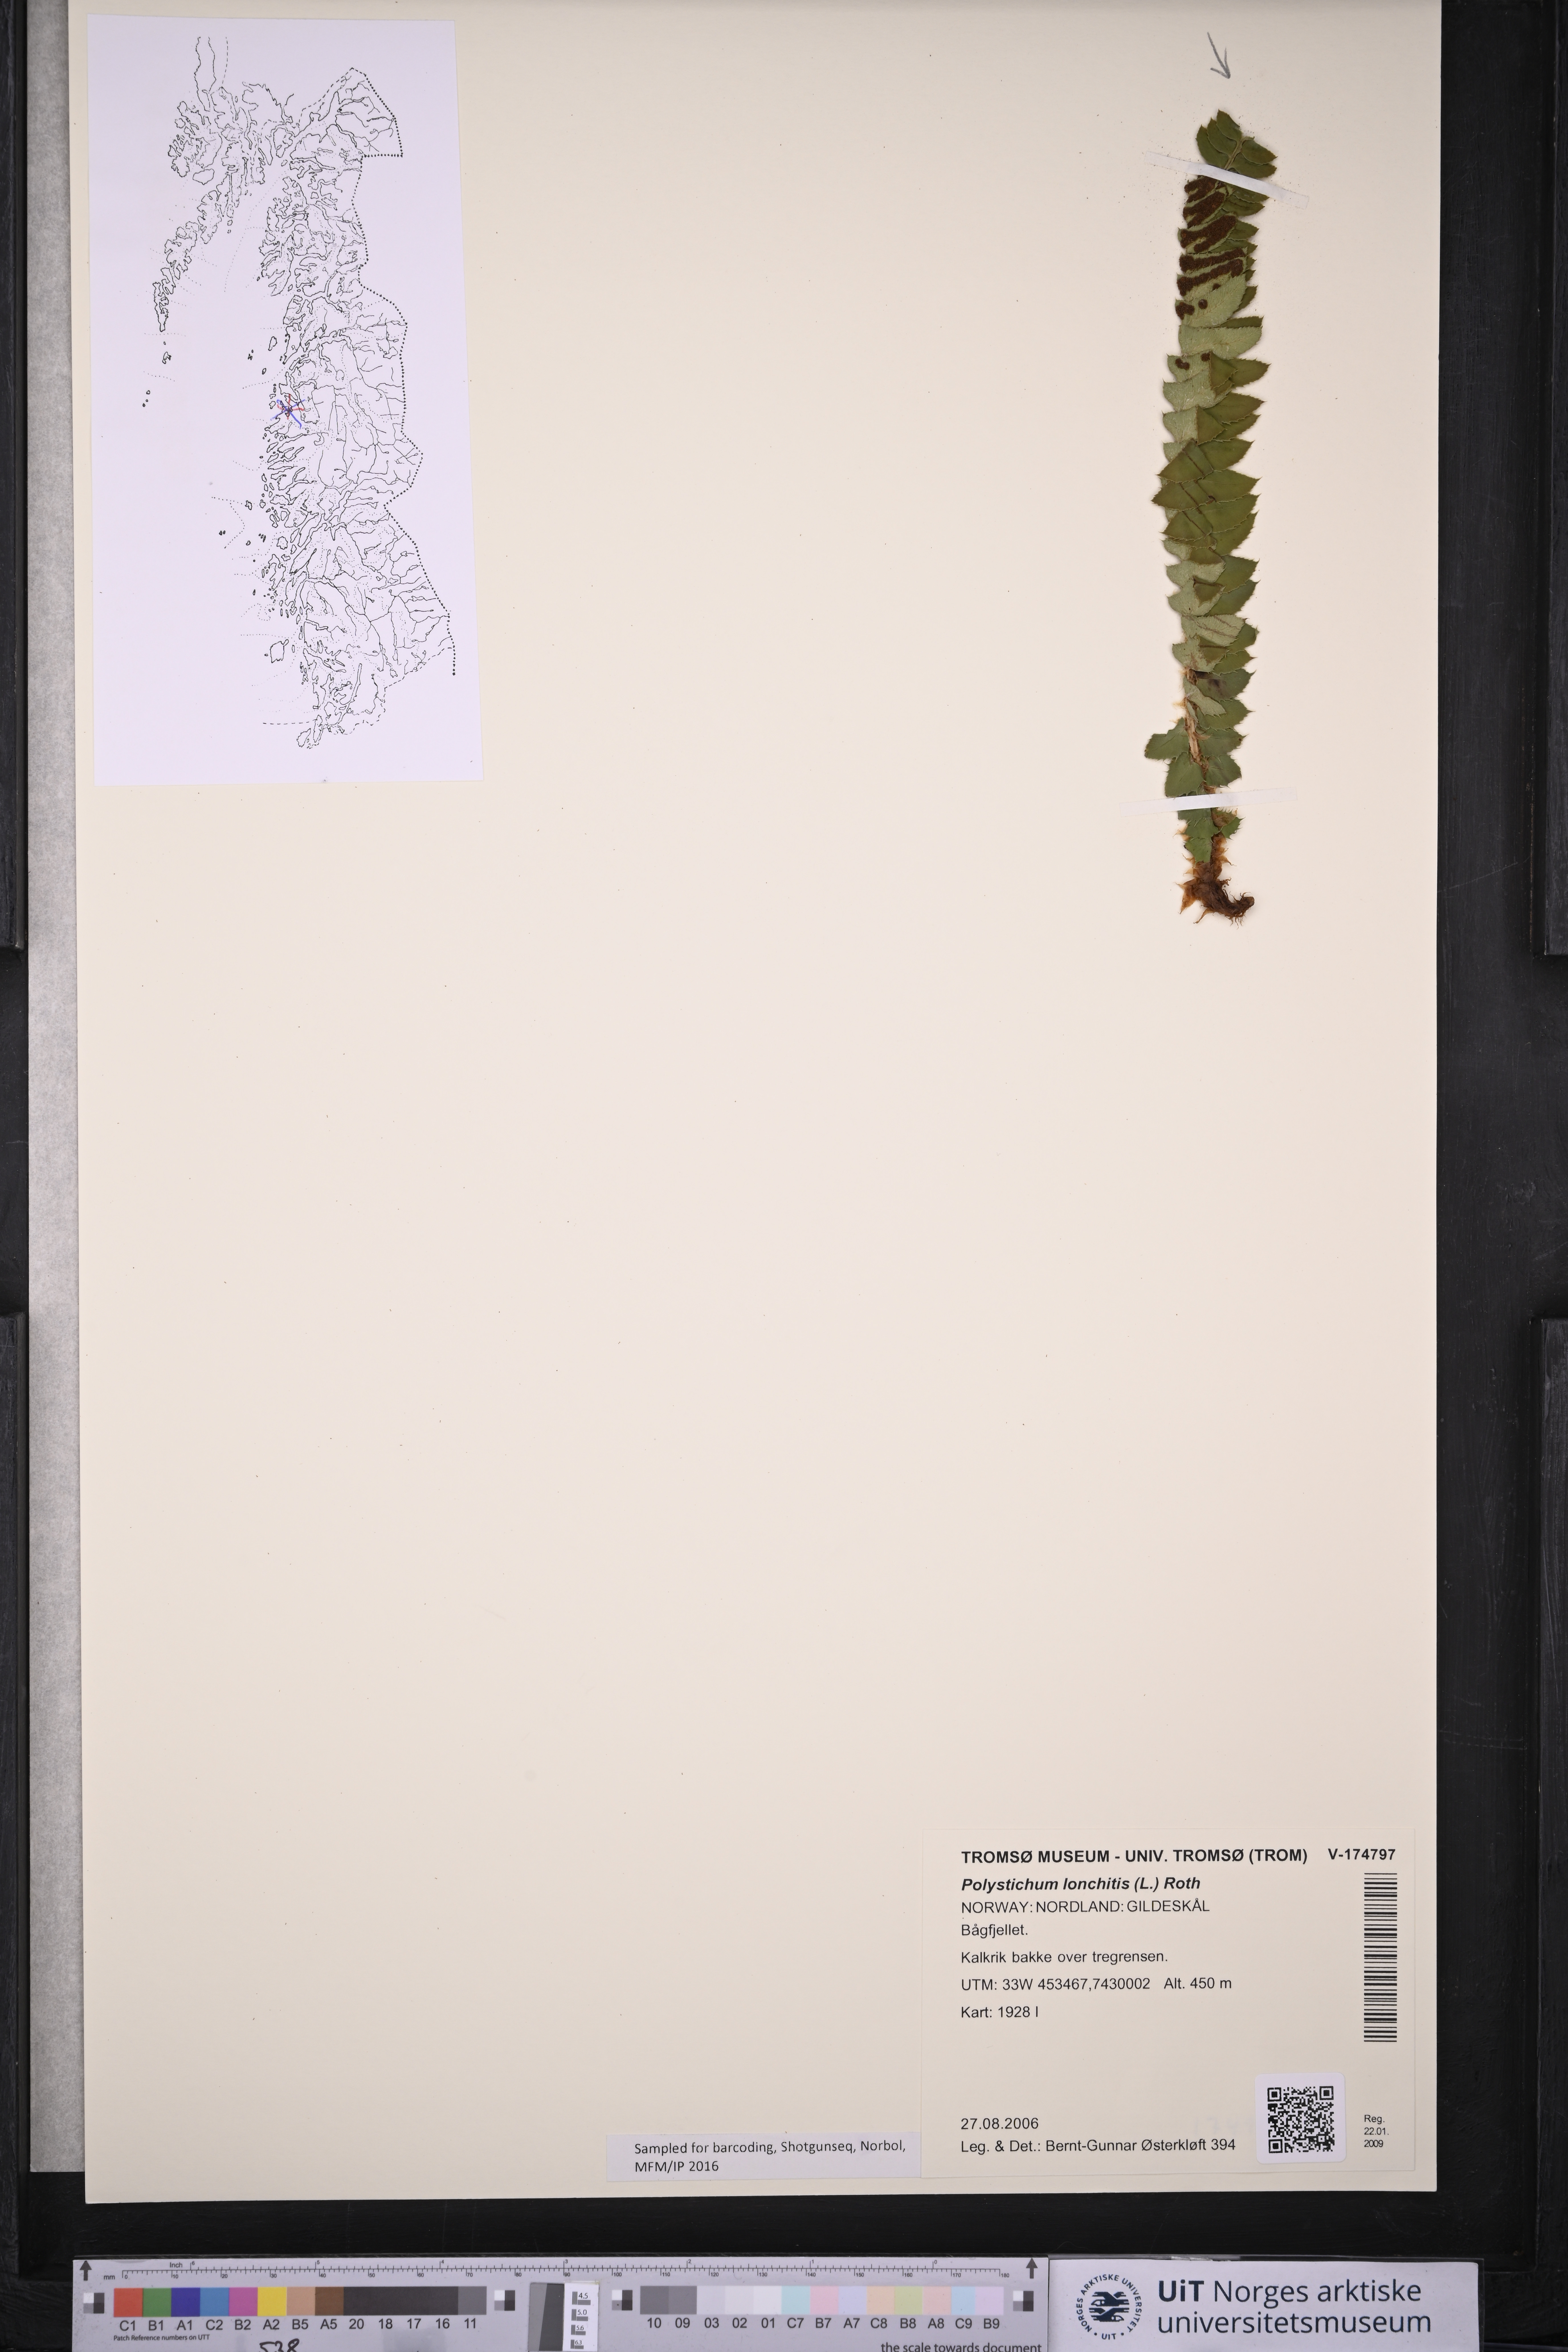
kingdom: Plantae
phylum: Tracheophyta
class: Polypodiopsida
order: Polypodiales
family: Dryopteridaceae
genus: Polystichum
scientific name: Polystichum lonchitis
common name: Holly fern
